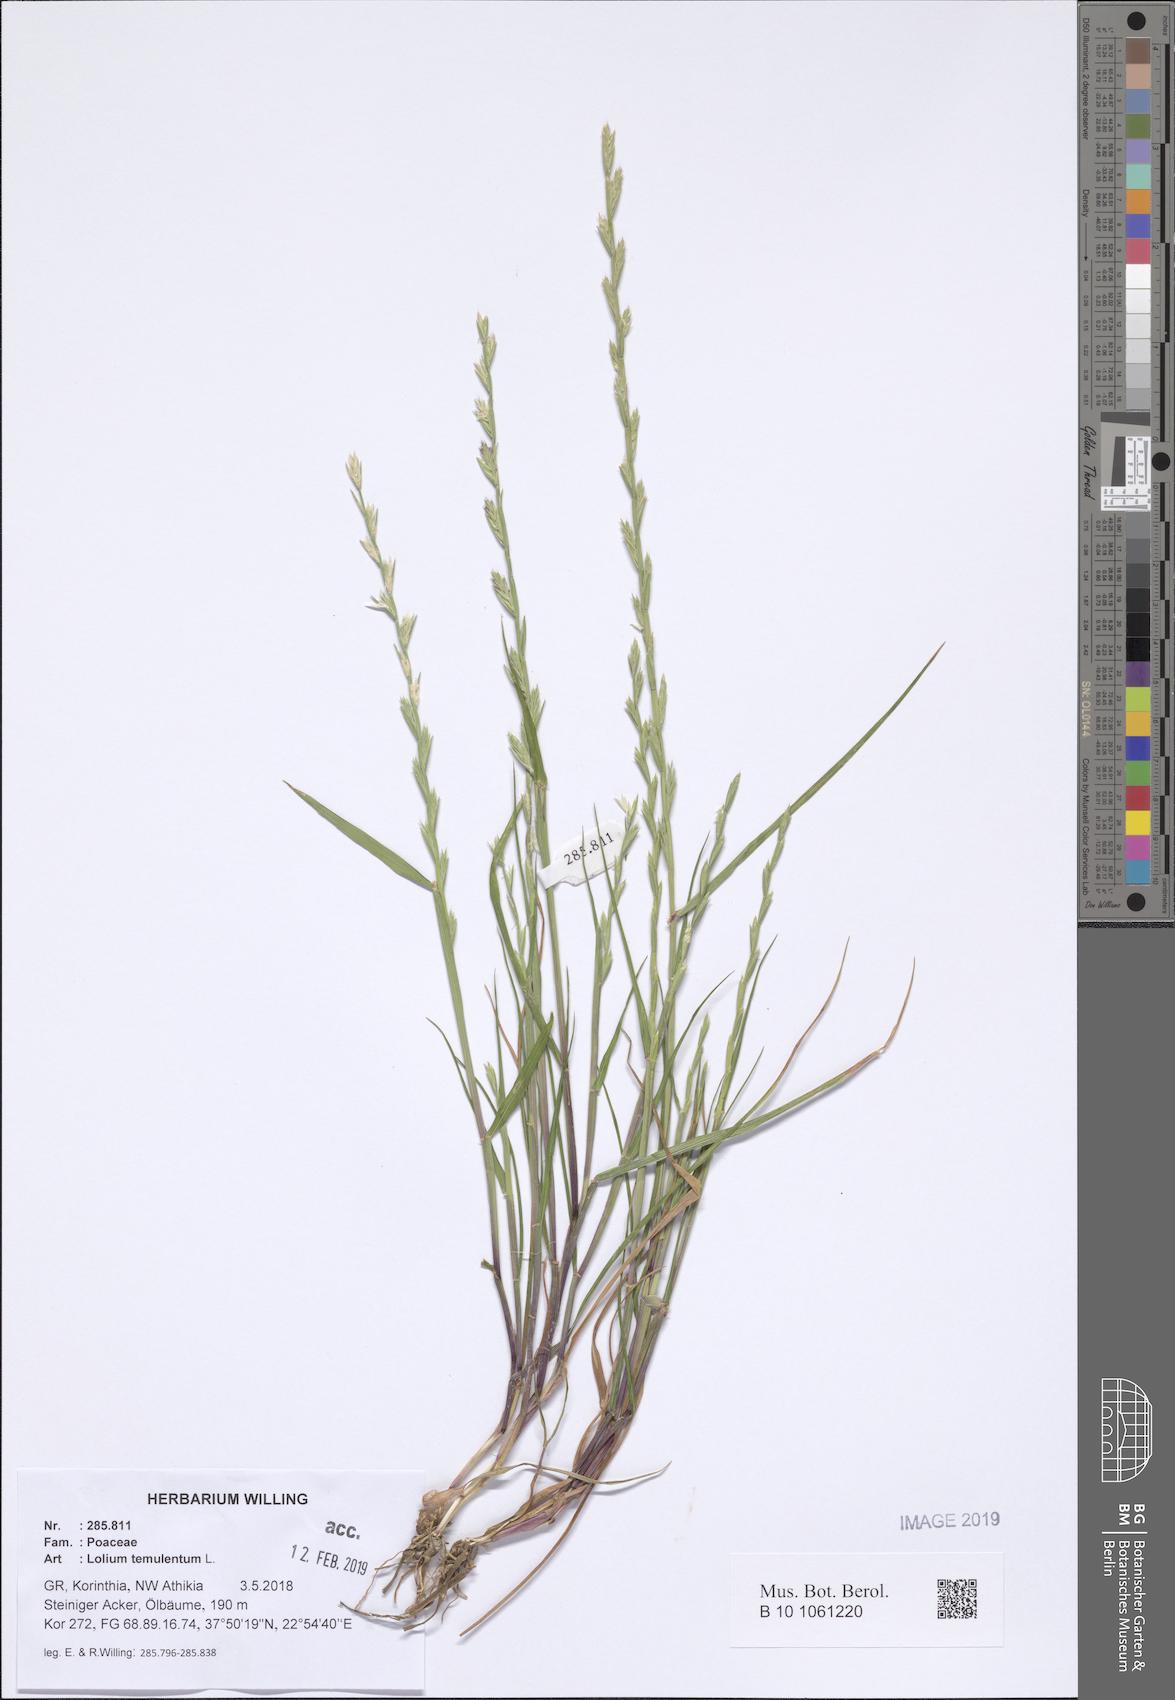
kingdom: Plantae
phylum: Tracheophyta
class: Liliopsida
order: Poales
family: Poaceae
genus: Lolium
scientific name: Lolium temulentum
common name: Darnel
